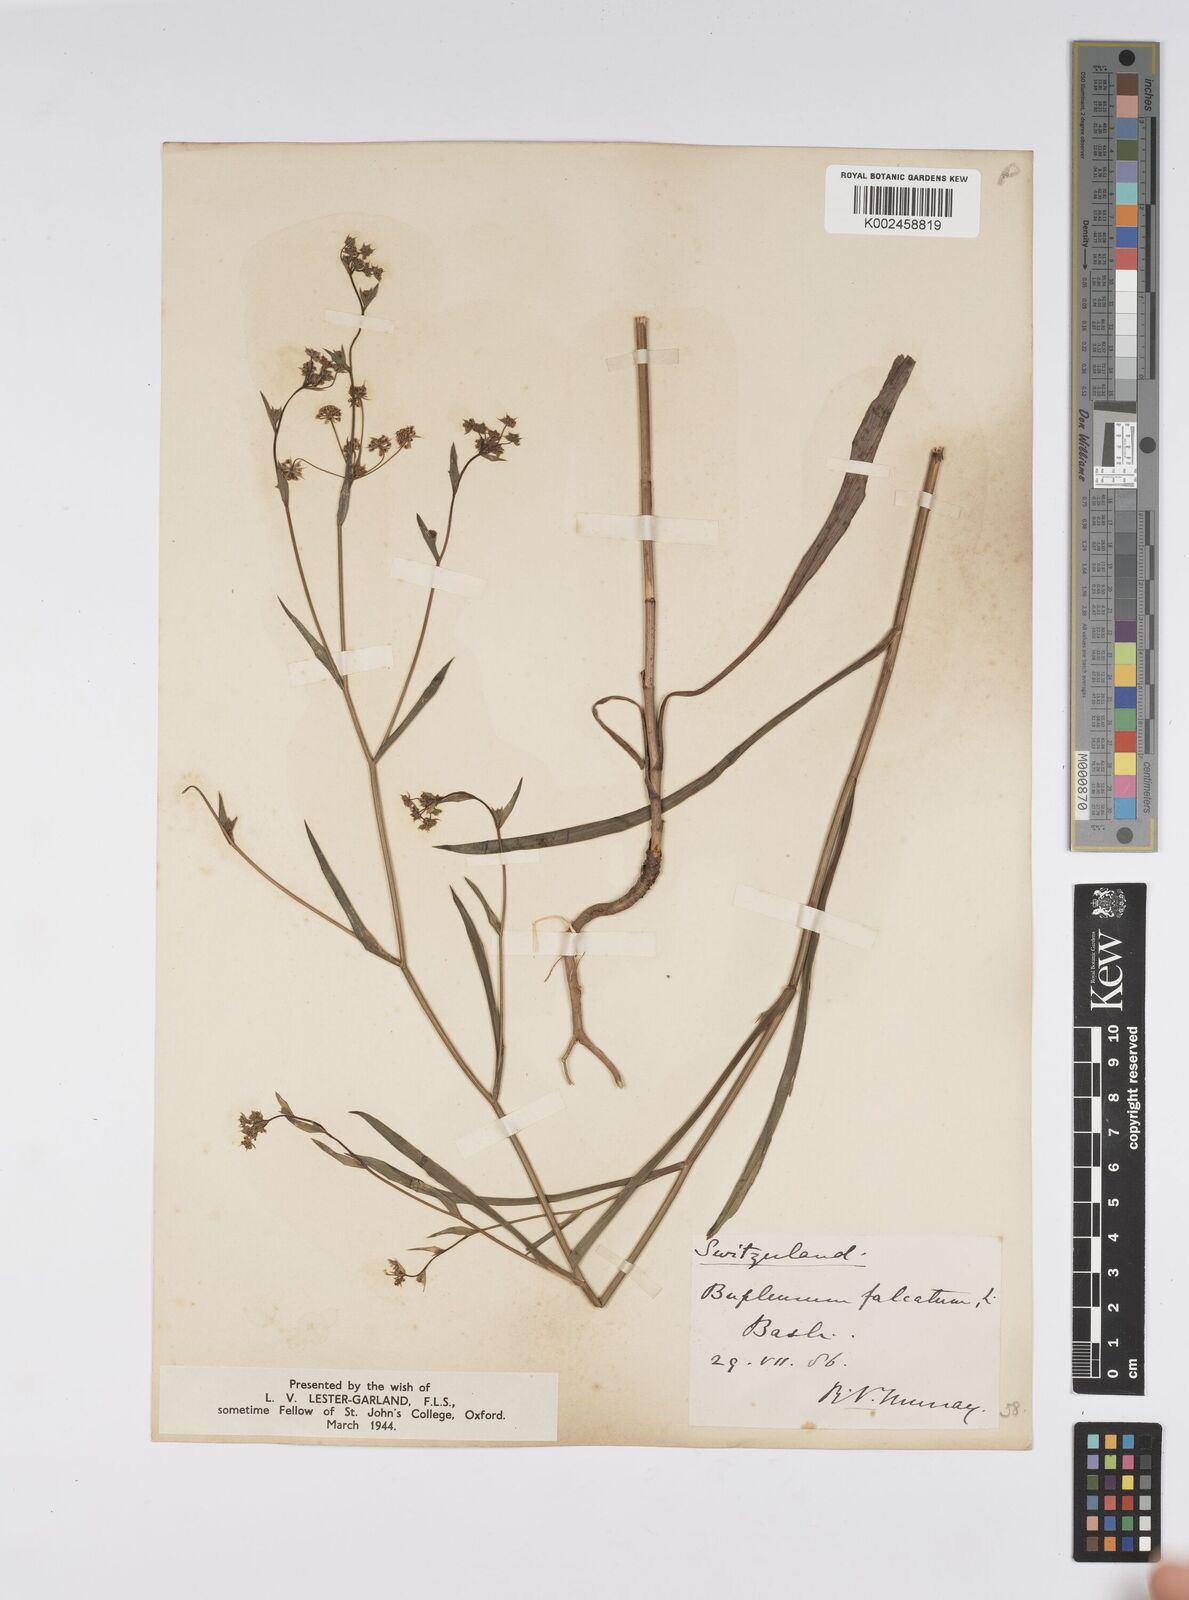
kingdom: Plantae
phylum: Tracheophyta
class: Magnoliopsida
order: Apiales
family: Apiaceae
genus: Bupleurum
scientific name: Bupleurum falcatum
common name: Sickle-leaved hare's-ear
